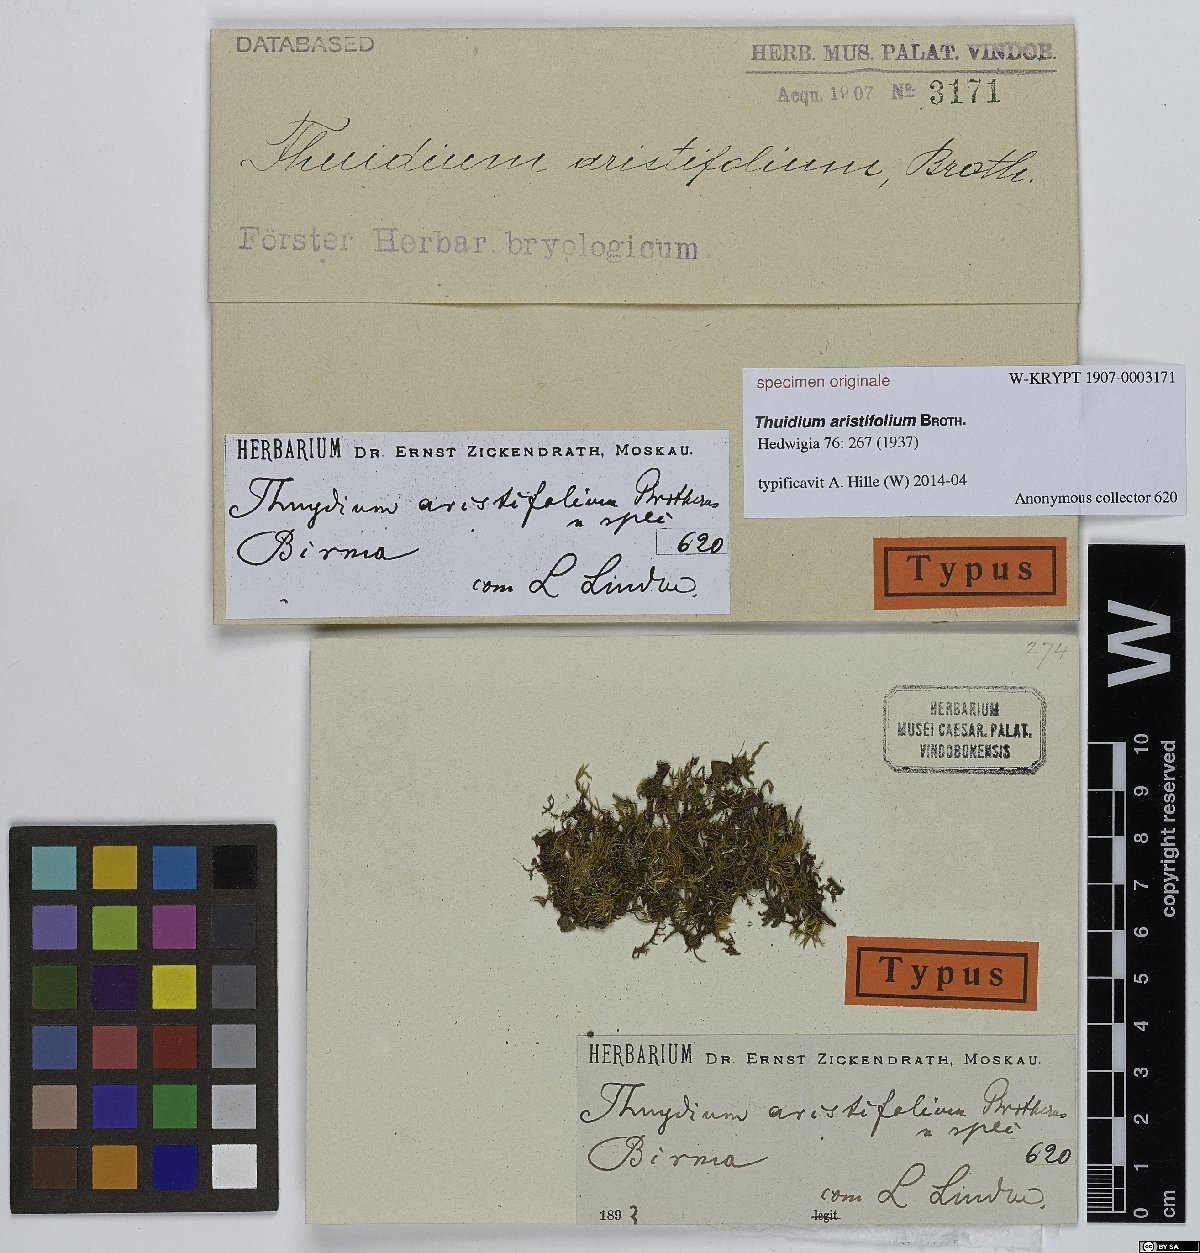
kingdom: Plantae
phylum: Bryophyta
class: Bryopsida
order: Hypnales
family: Thuidiaceae
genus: Thuidium
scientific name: Thuidium
